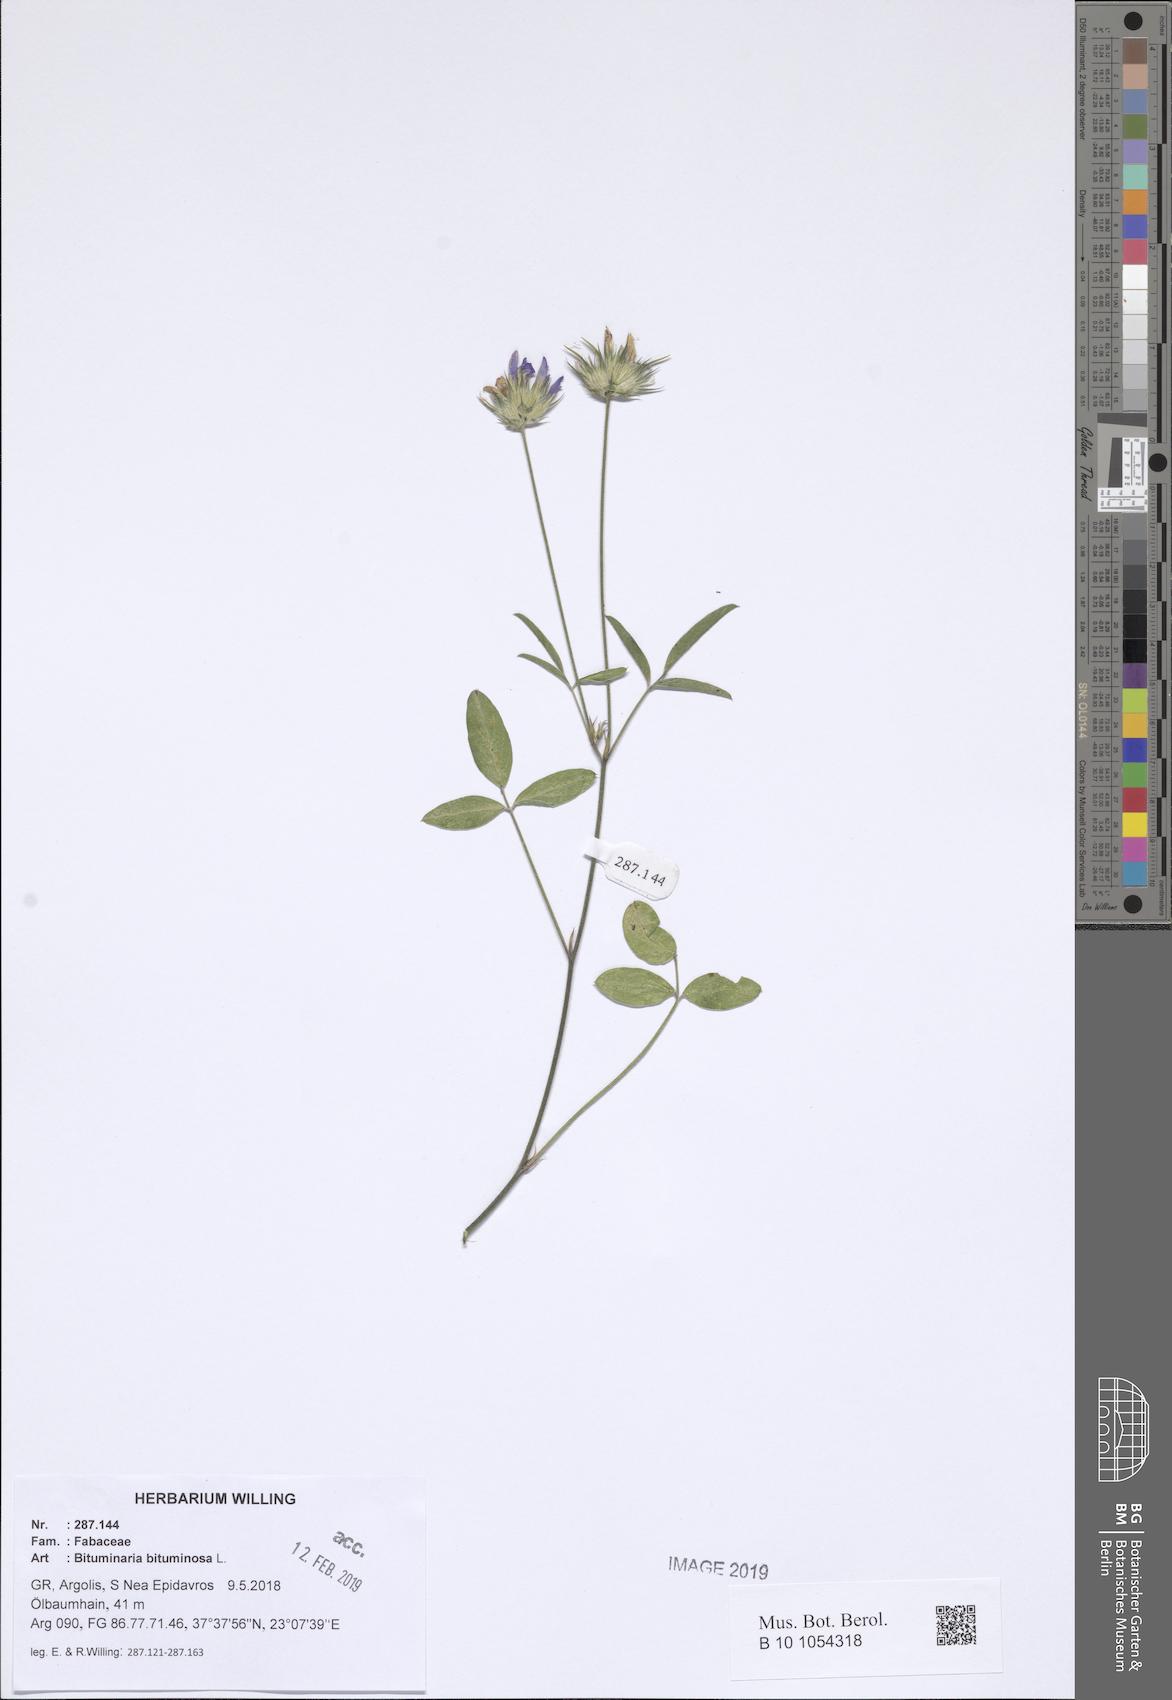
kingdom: Plantae
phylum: Tracheophyta
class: Magnoliopsida
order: Fabales
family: Fabaceae
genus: Bituminaria
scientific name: Bituminaria bituminosa
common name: Arabian pea
